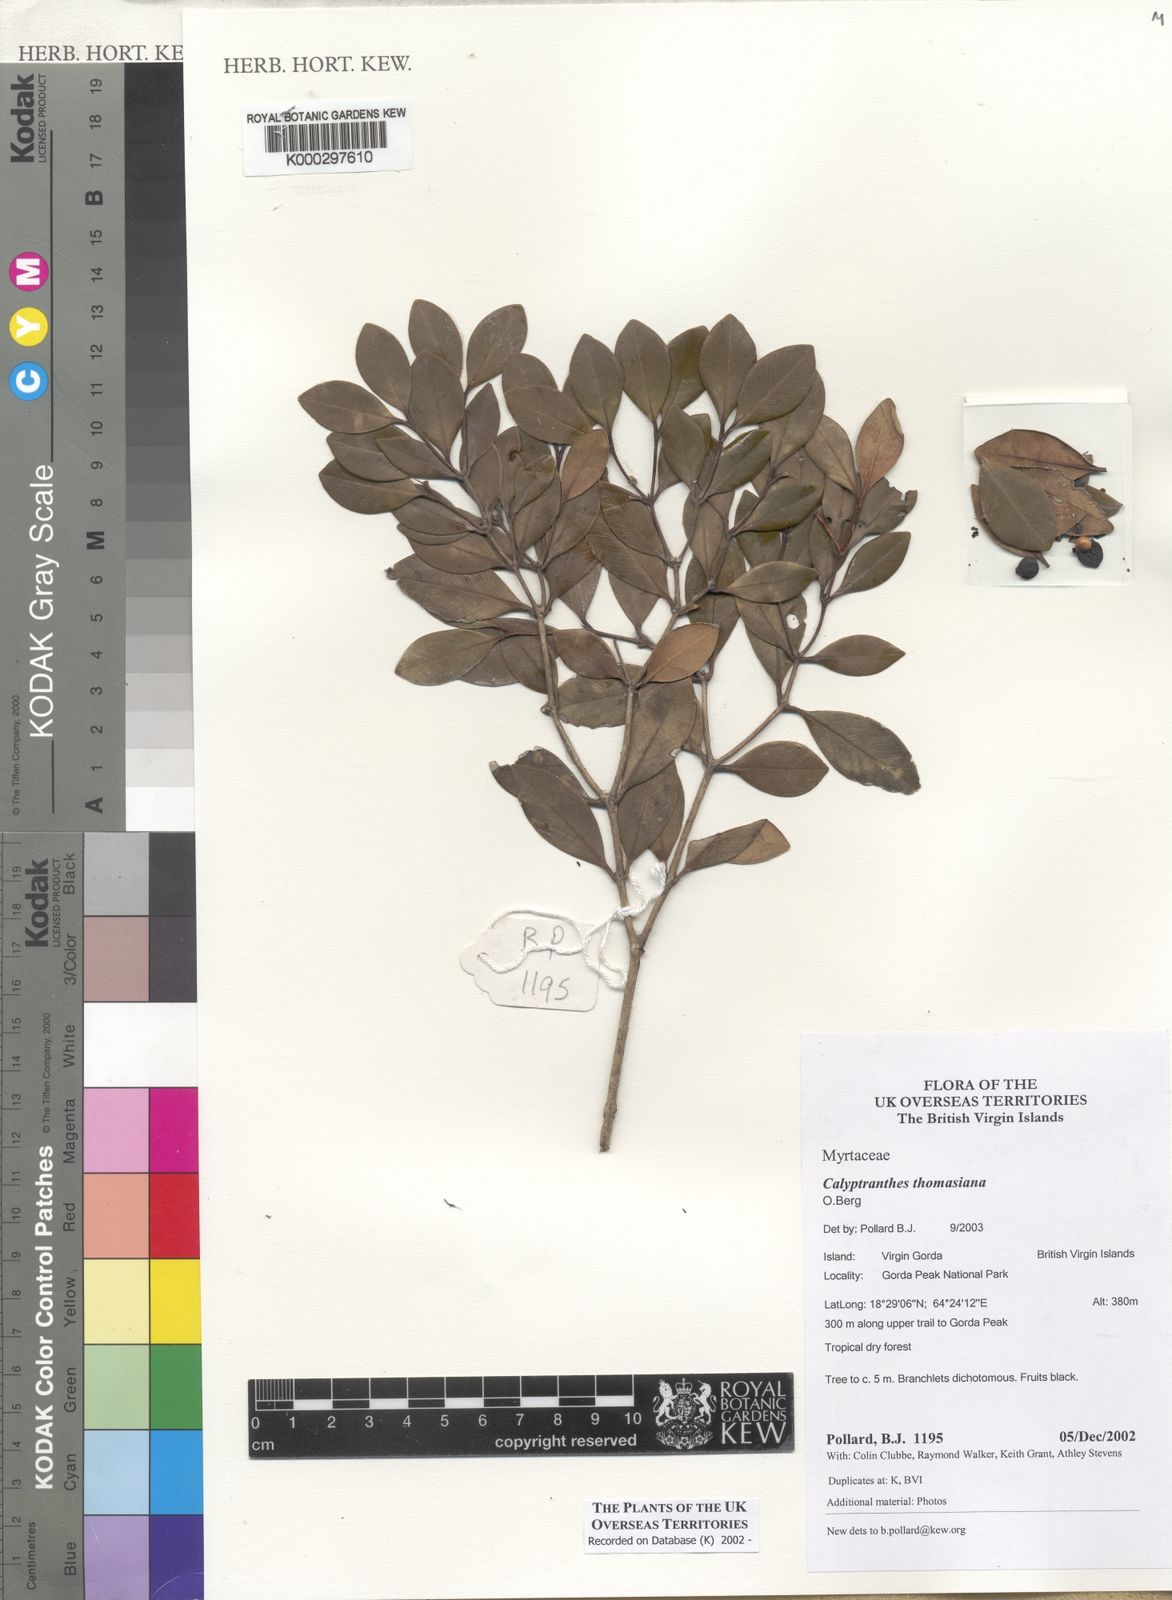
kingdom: Plantae
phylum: Tracheophyta
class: Magnoliopsida
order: Myrtales
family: Myrtaceae
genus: Myrcia
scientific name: Myrcia neothomasiana
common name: St. thomas lidflower
